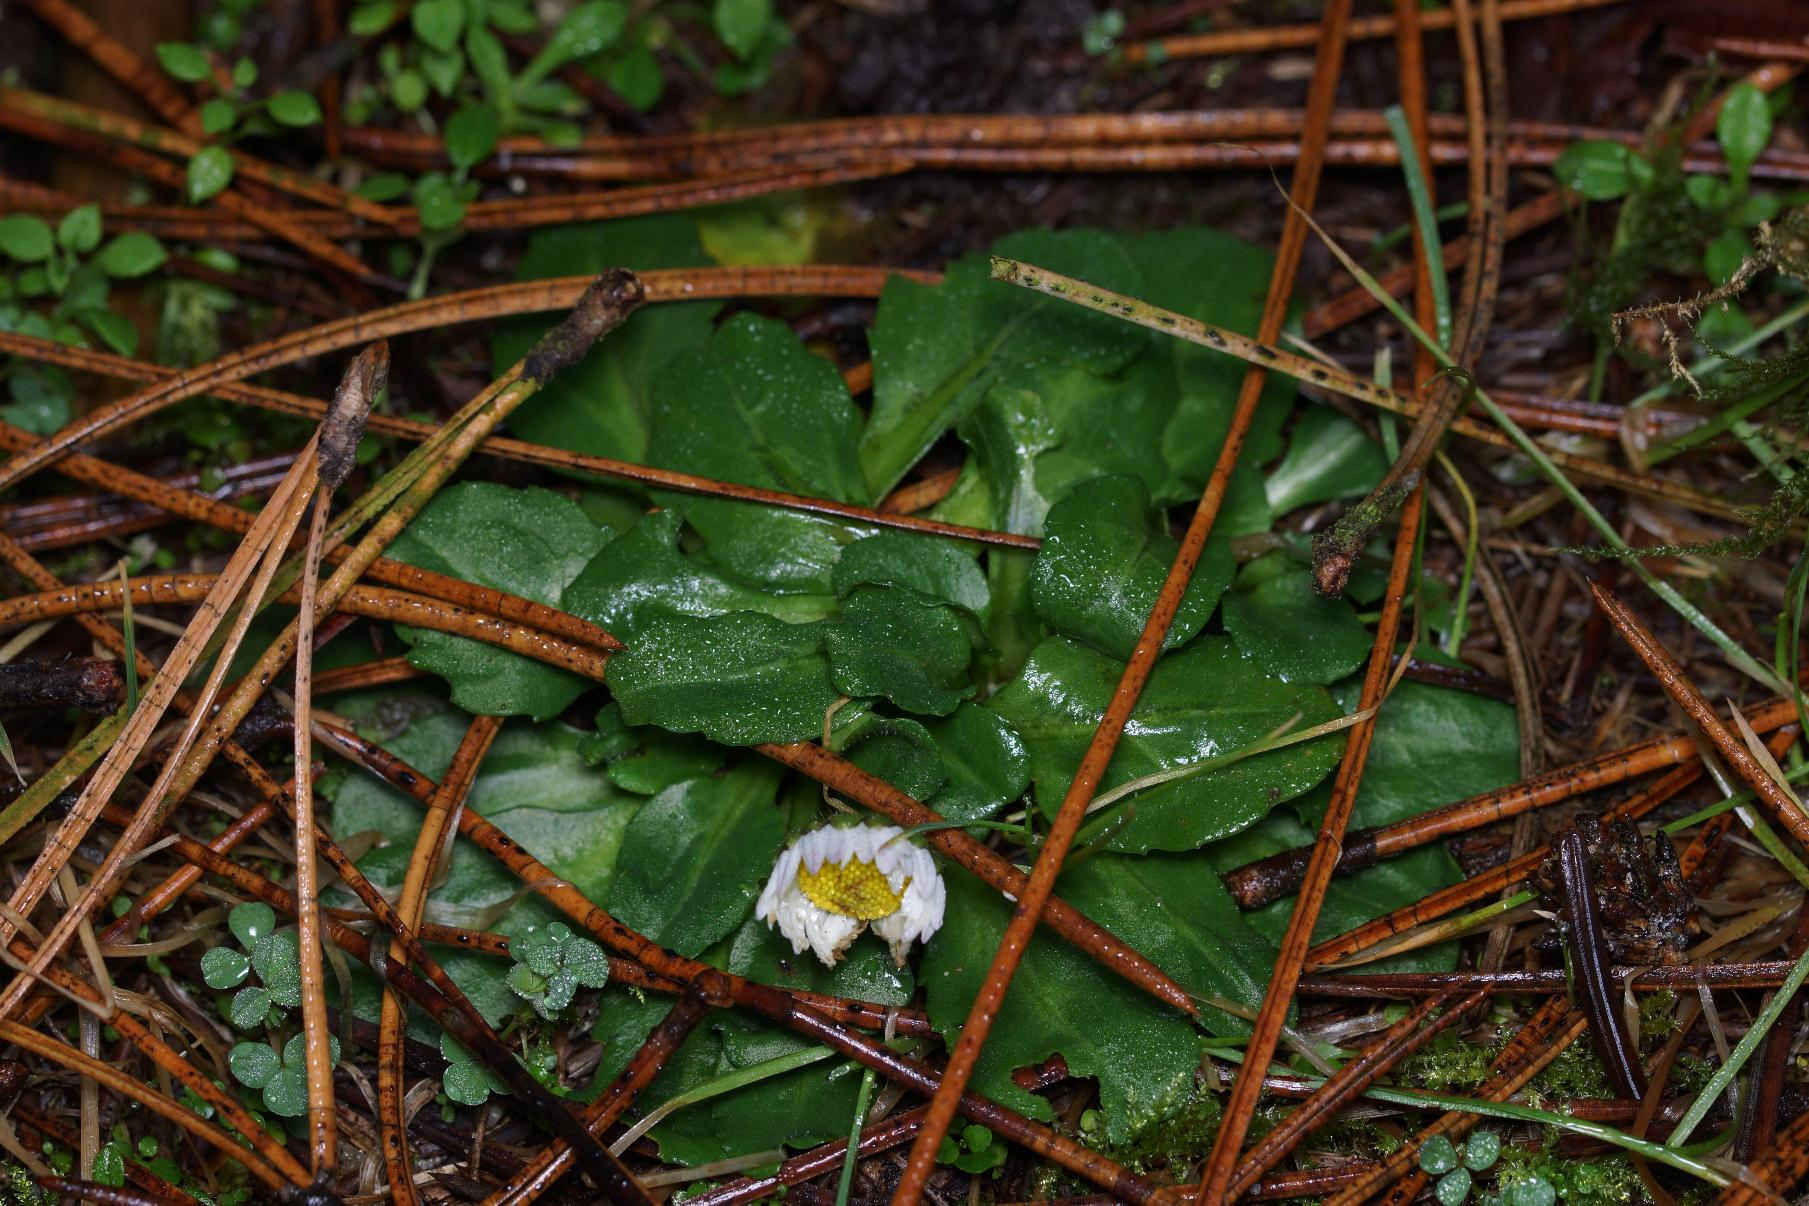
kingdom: Plantae
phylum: Tracheophyta
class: Magnoliopsida
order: Asterales
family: Asteraceae
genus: Bellis
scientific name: Bellis perennis
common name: Tusindfryd
